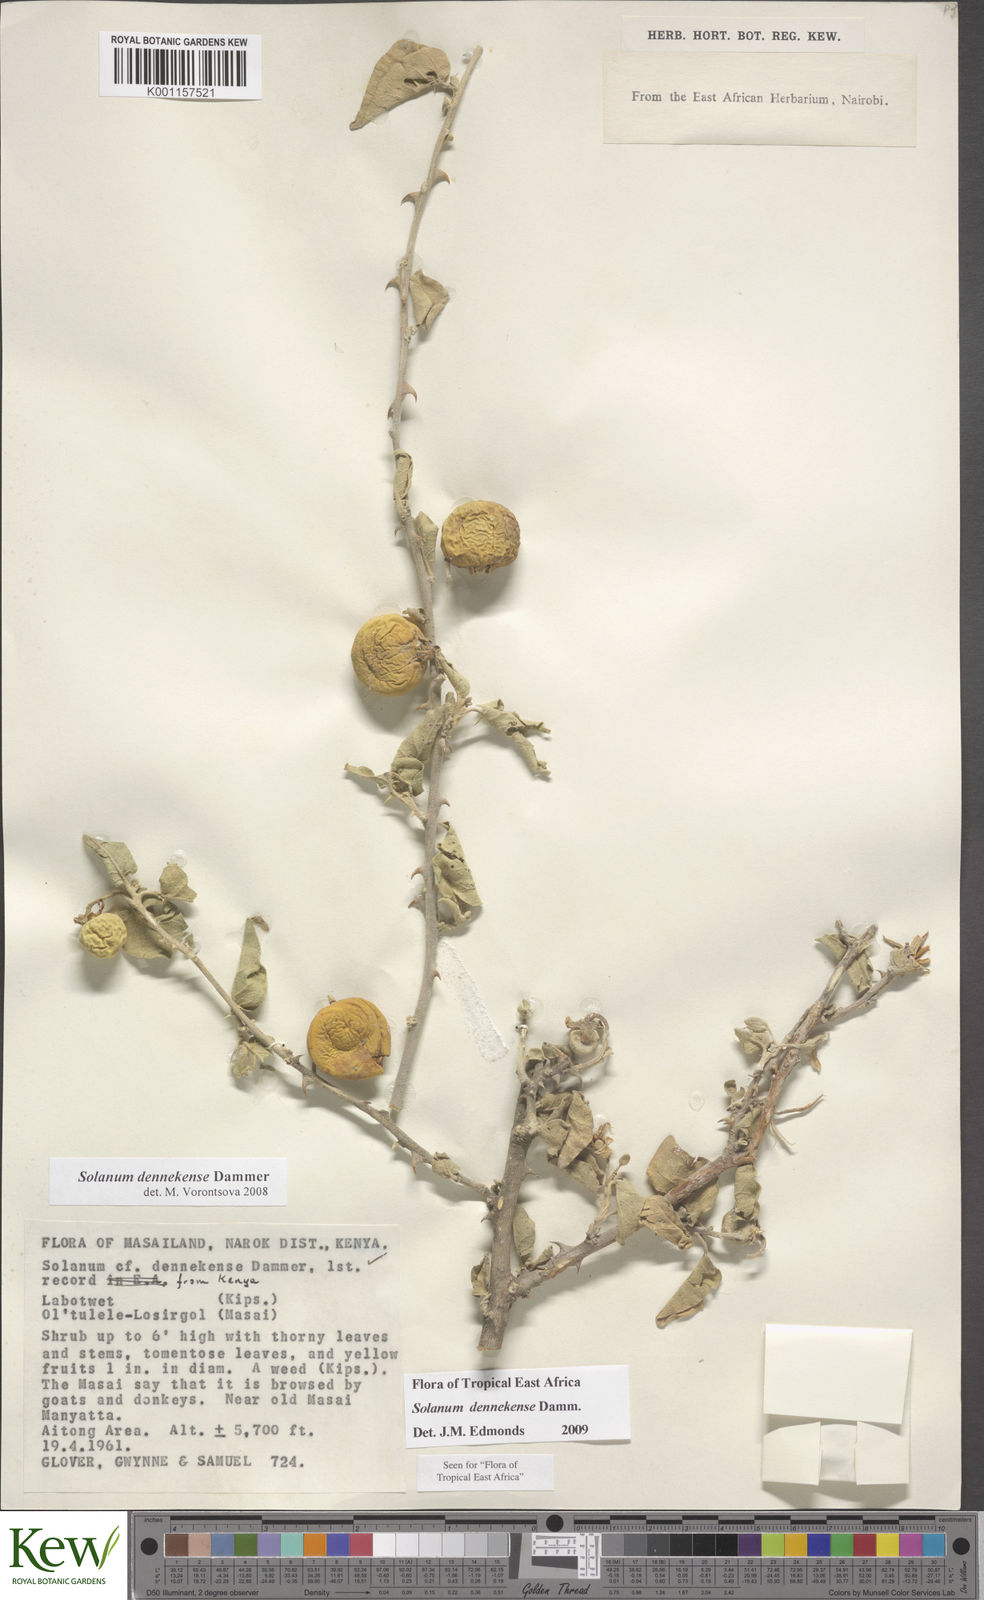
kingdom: Plantae
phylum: Tracheophyta
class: Magnoliopsida
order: Solanales
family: Solanaceae
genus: Solanum
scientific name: Solanum dennekense
